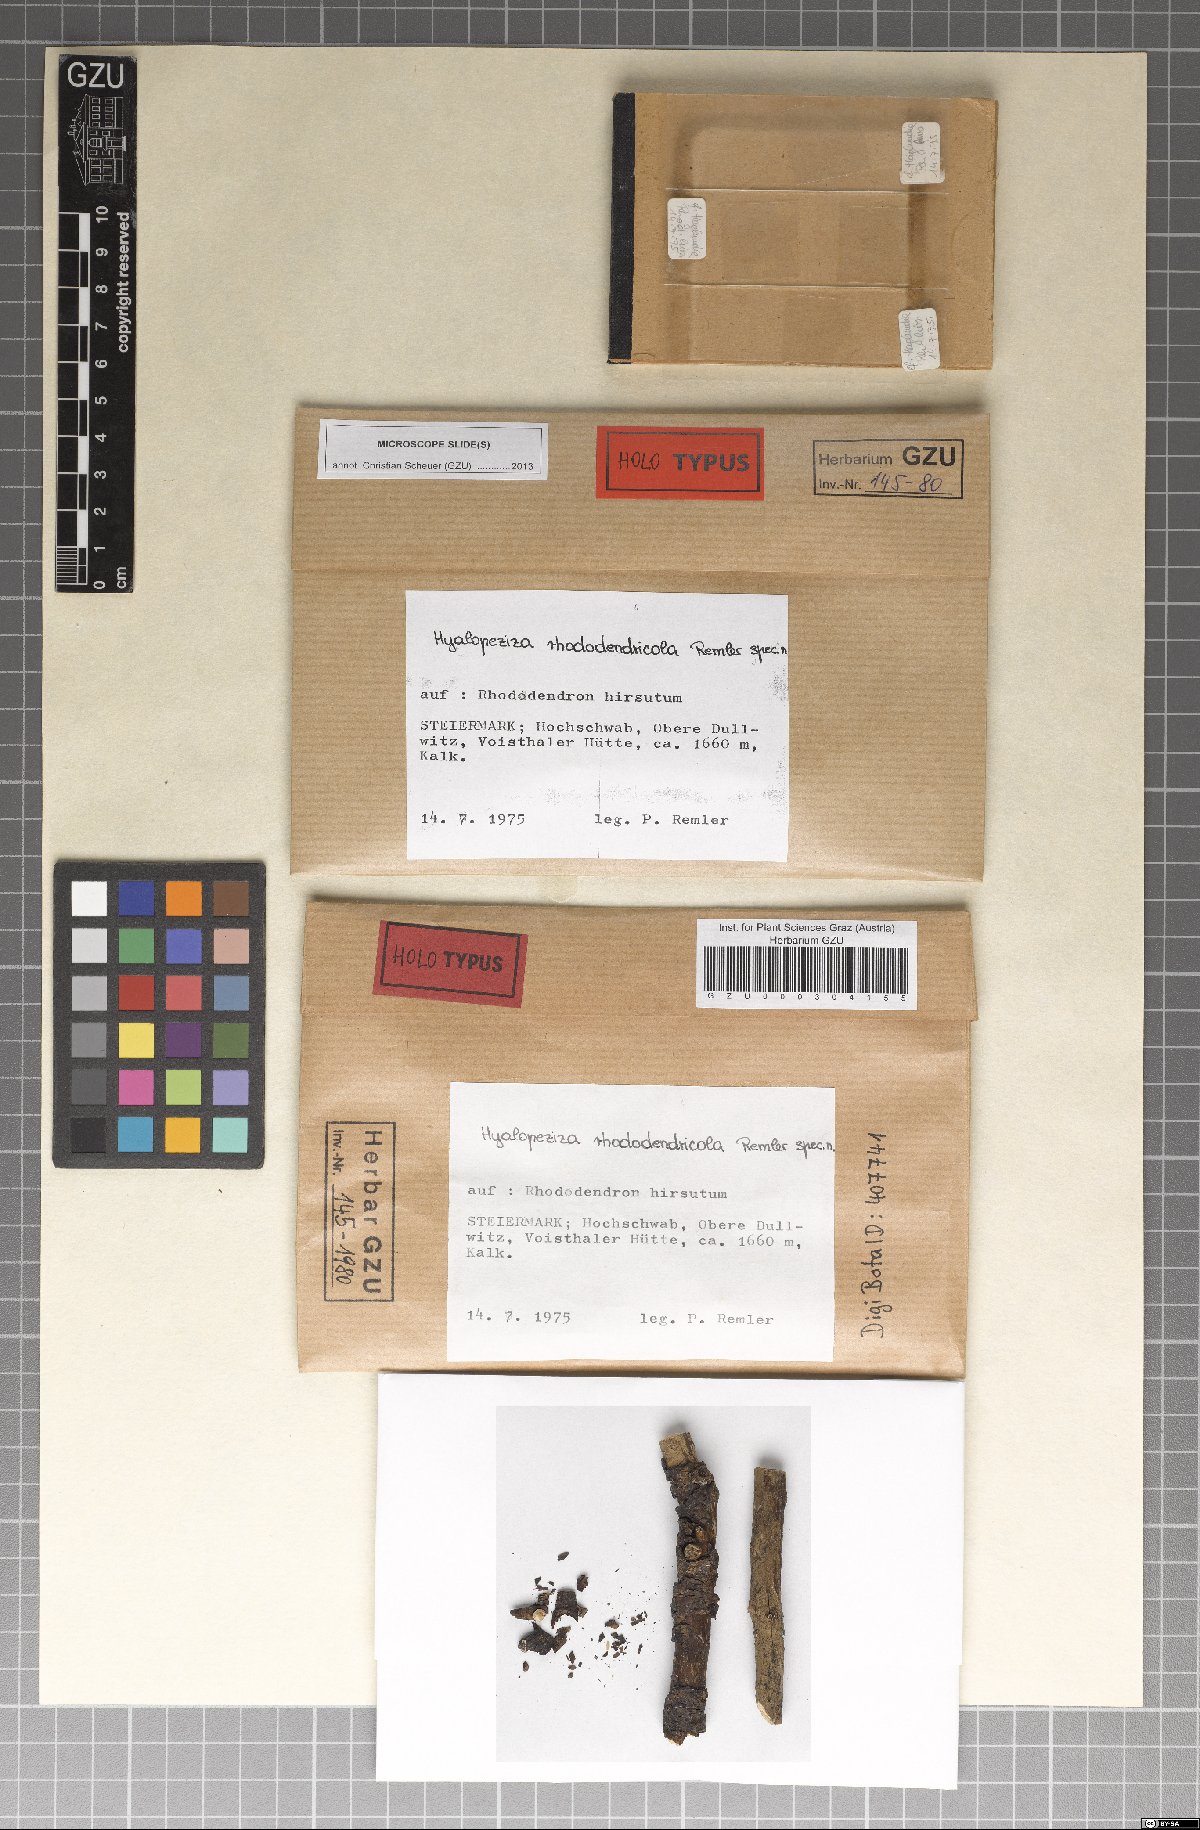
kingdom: Fungi
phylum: Ascomycota
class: Leotiomycetes
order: Helotiales
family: Hyaloscyphaceae
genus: Hyalopeziza
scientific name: Hyalopeziza rhododendricola
